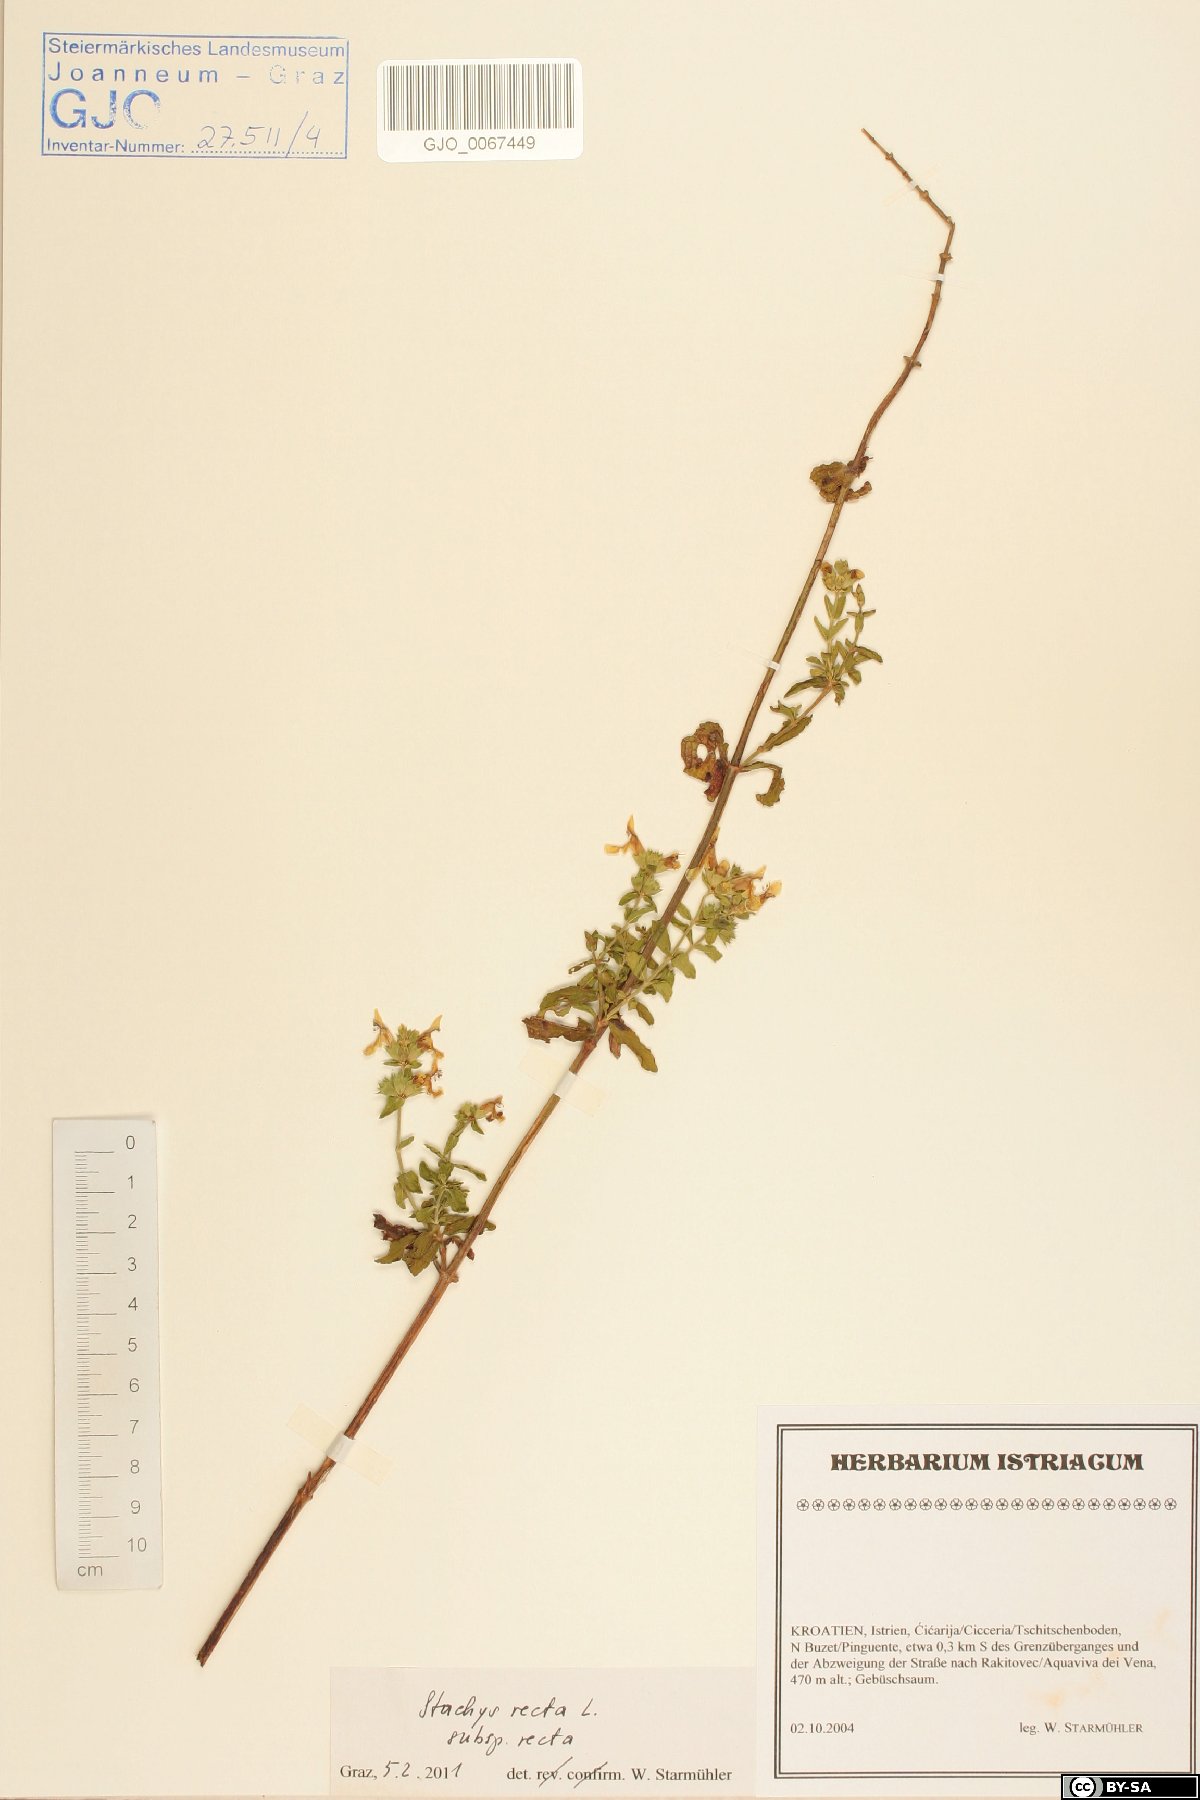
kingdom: Plantae
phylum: Tracheophyta
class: Magnoliopsida
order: Lamiales
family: Lamiaceae
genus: Stachys
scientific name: Stachys recta
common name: Perennial yellow-woundwort
